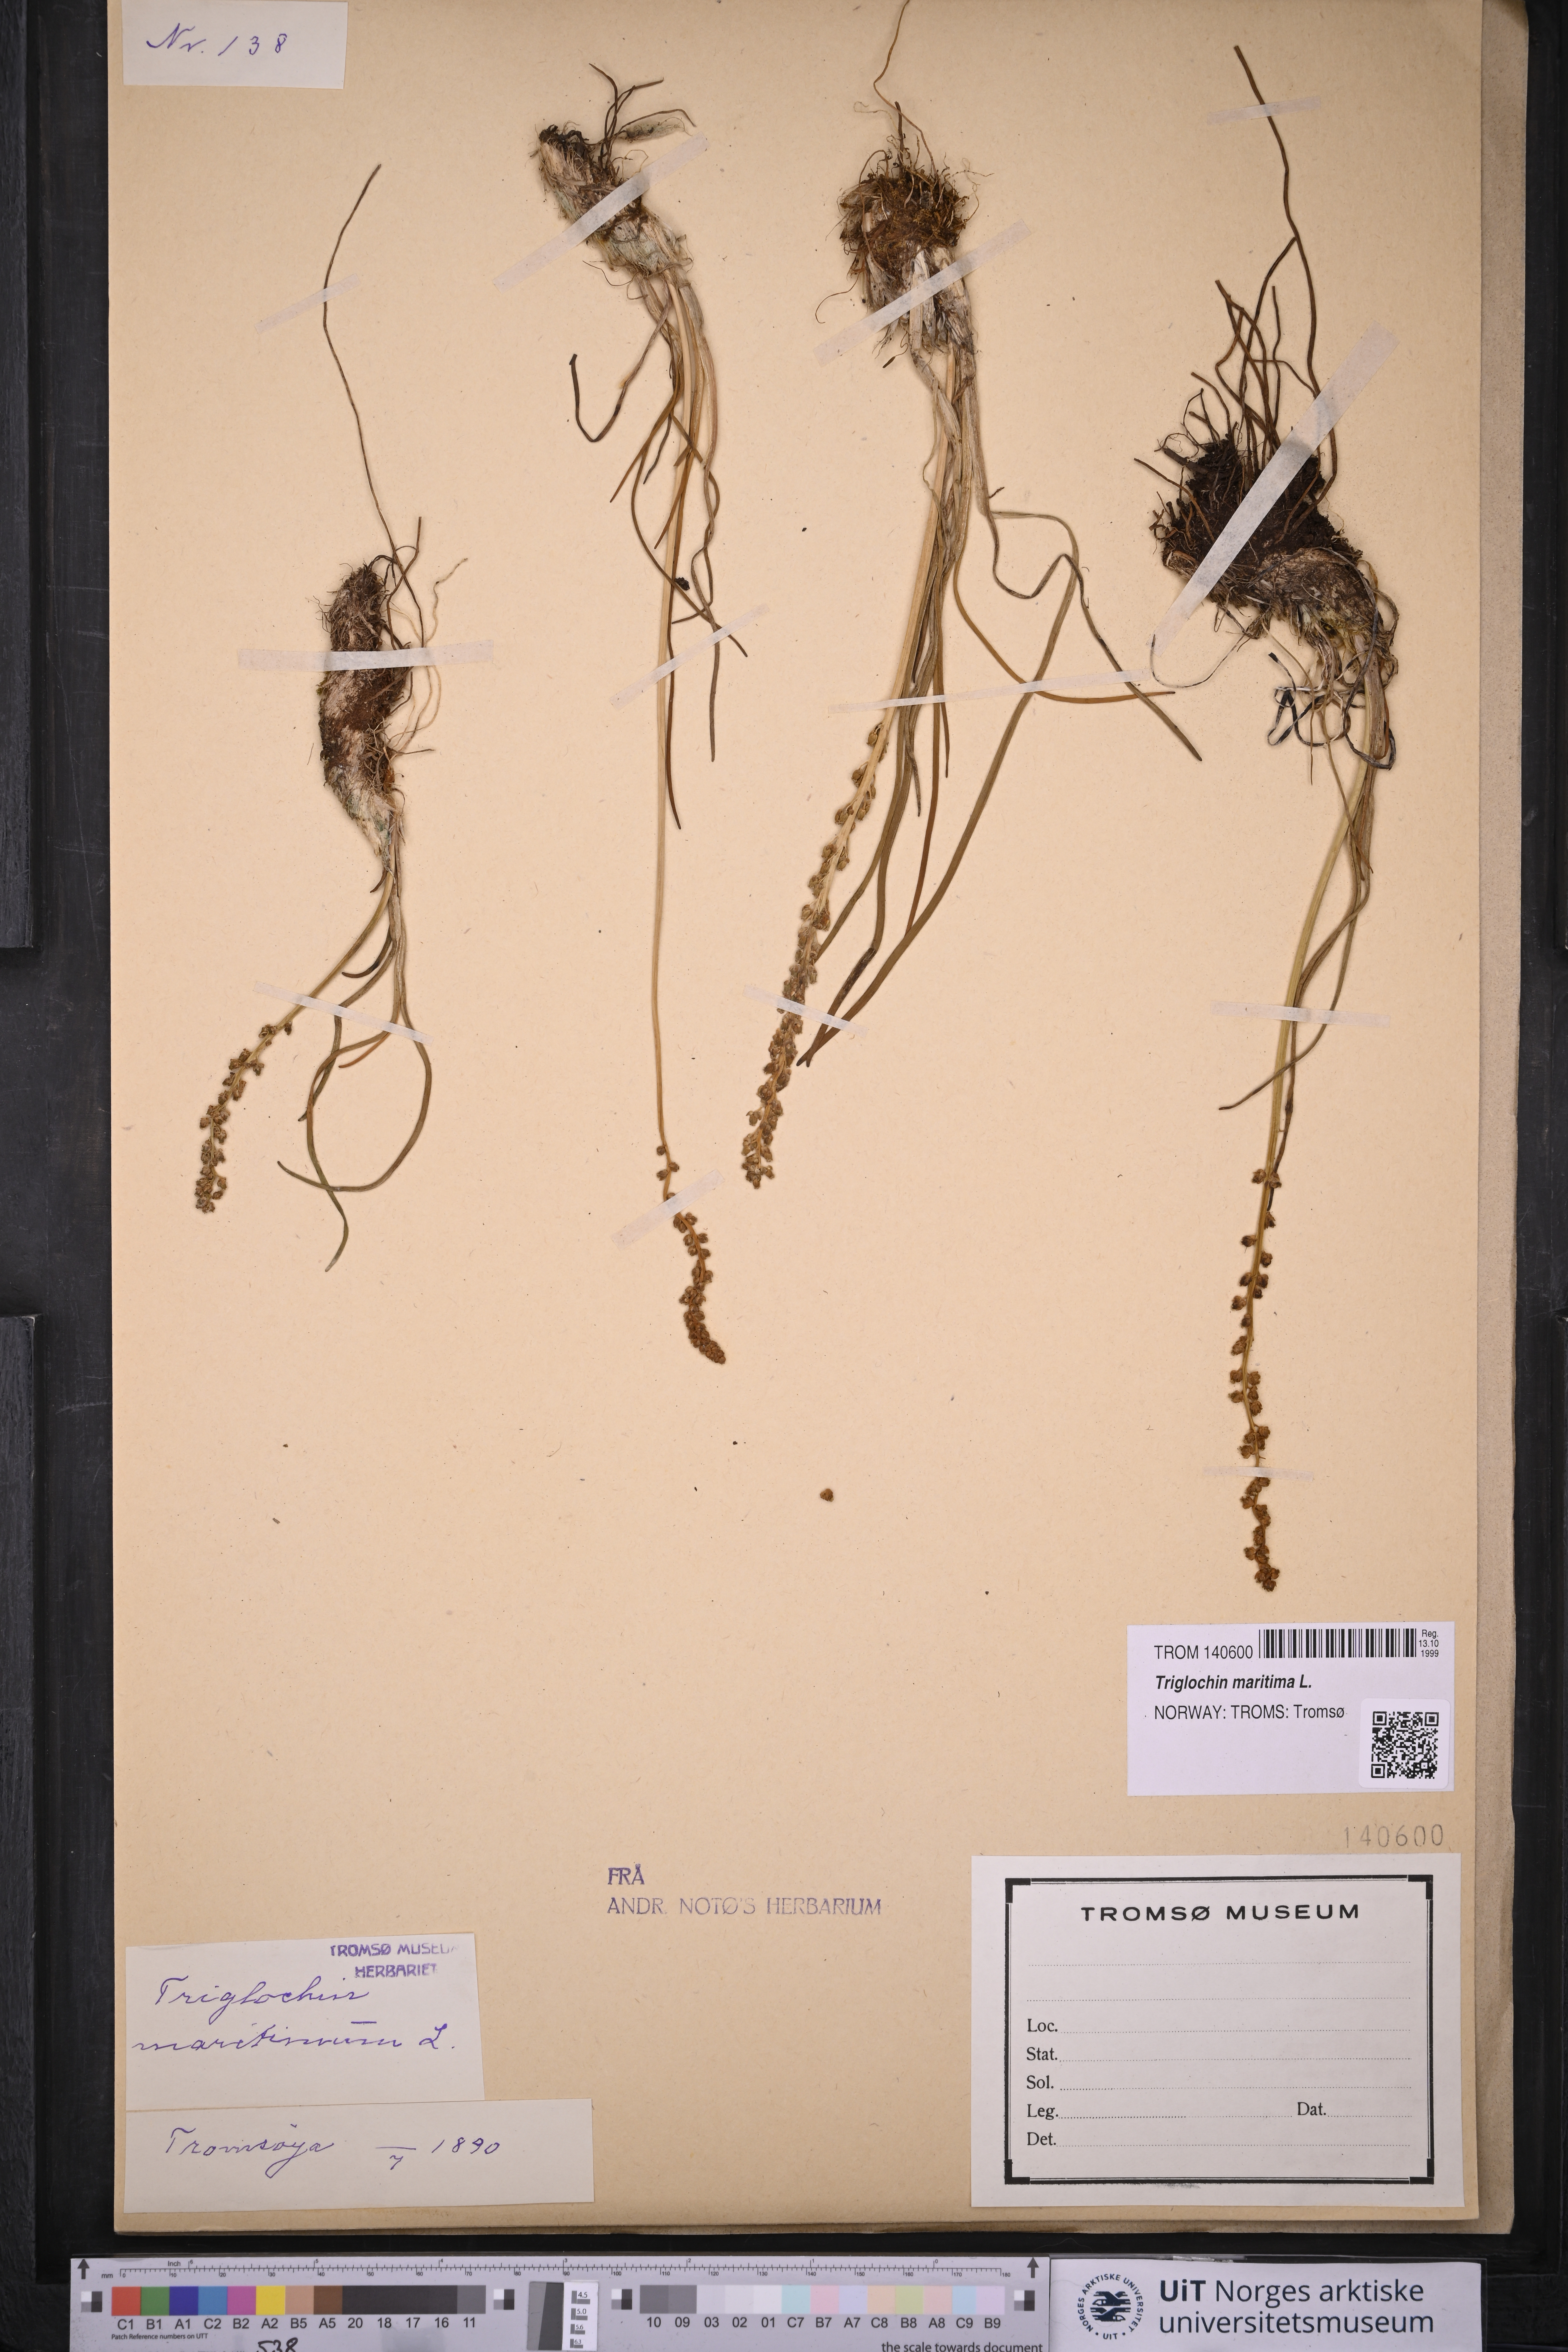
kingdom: Plantae
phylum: Tracheophyta
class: Liliopsida
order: Alismatales
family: Juncaginaceae
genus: Triglochin
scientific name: Triglochin maritima
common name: Sea arrowgrass
